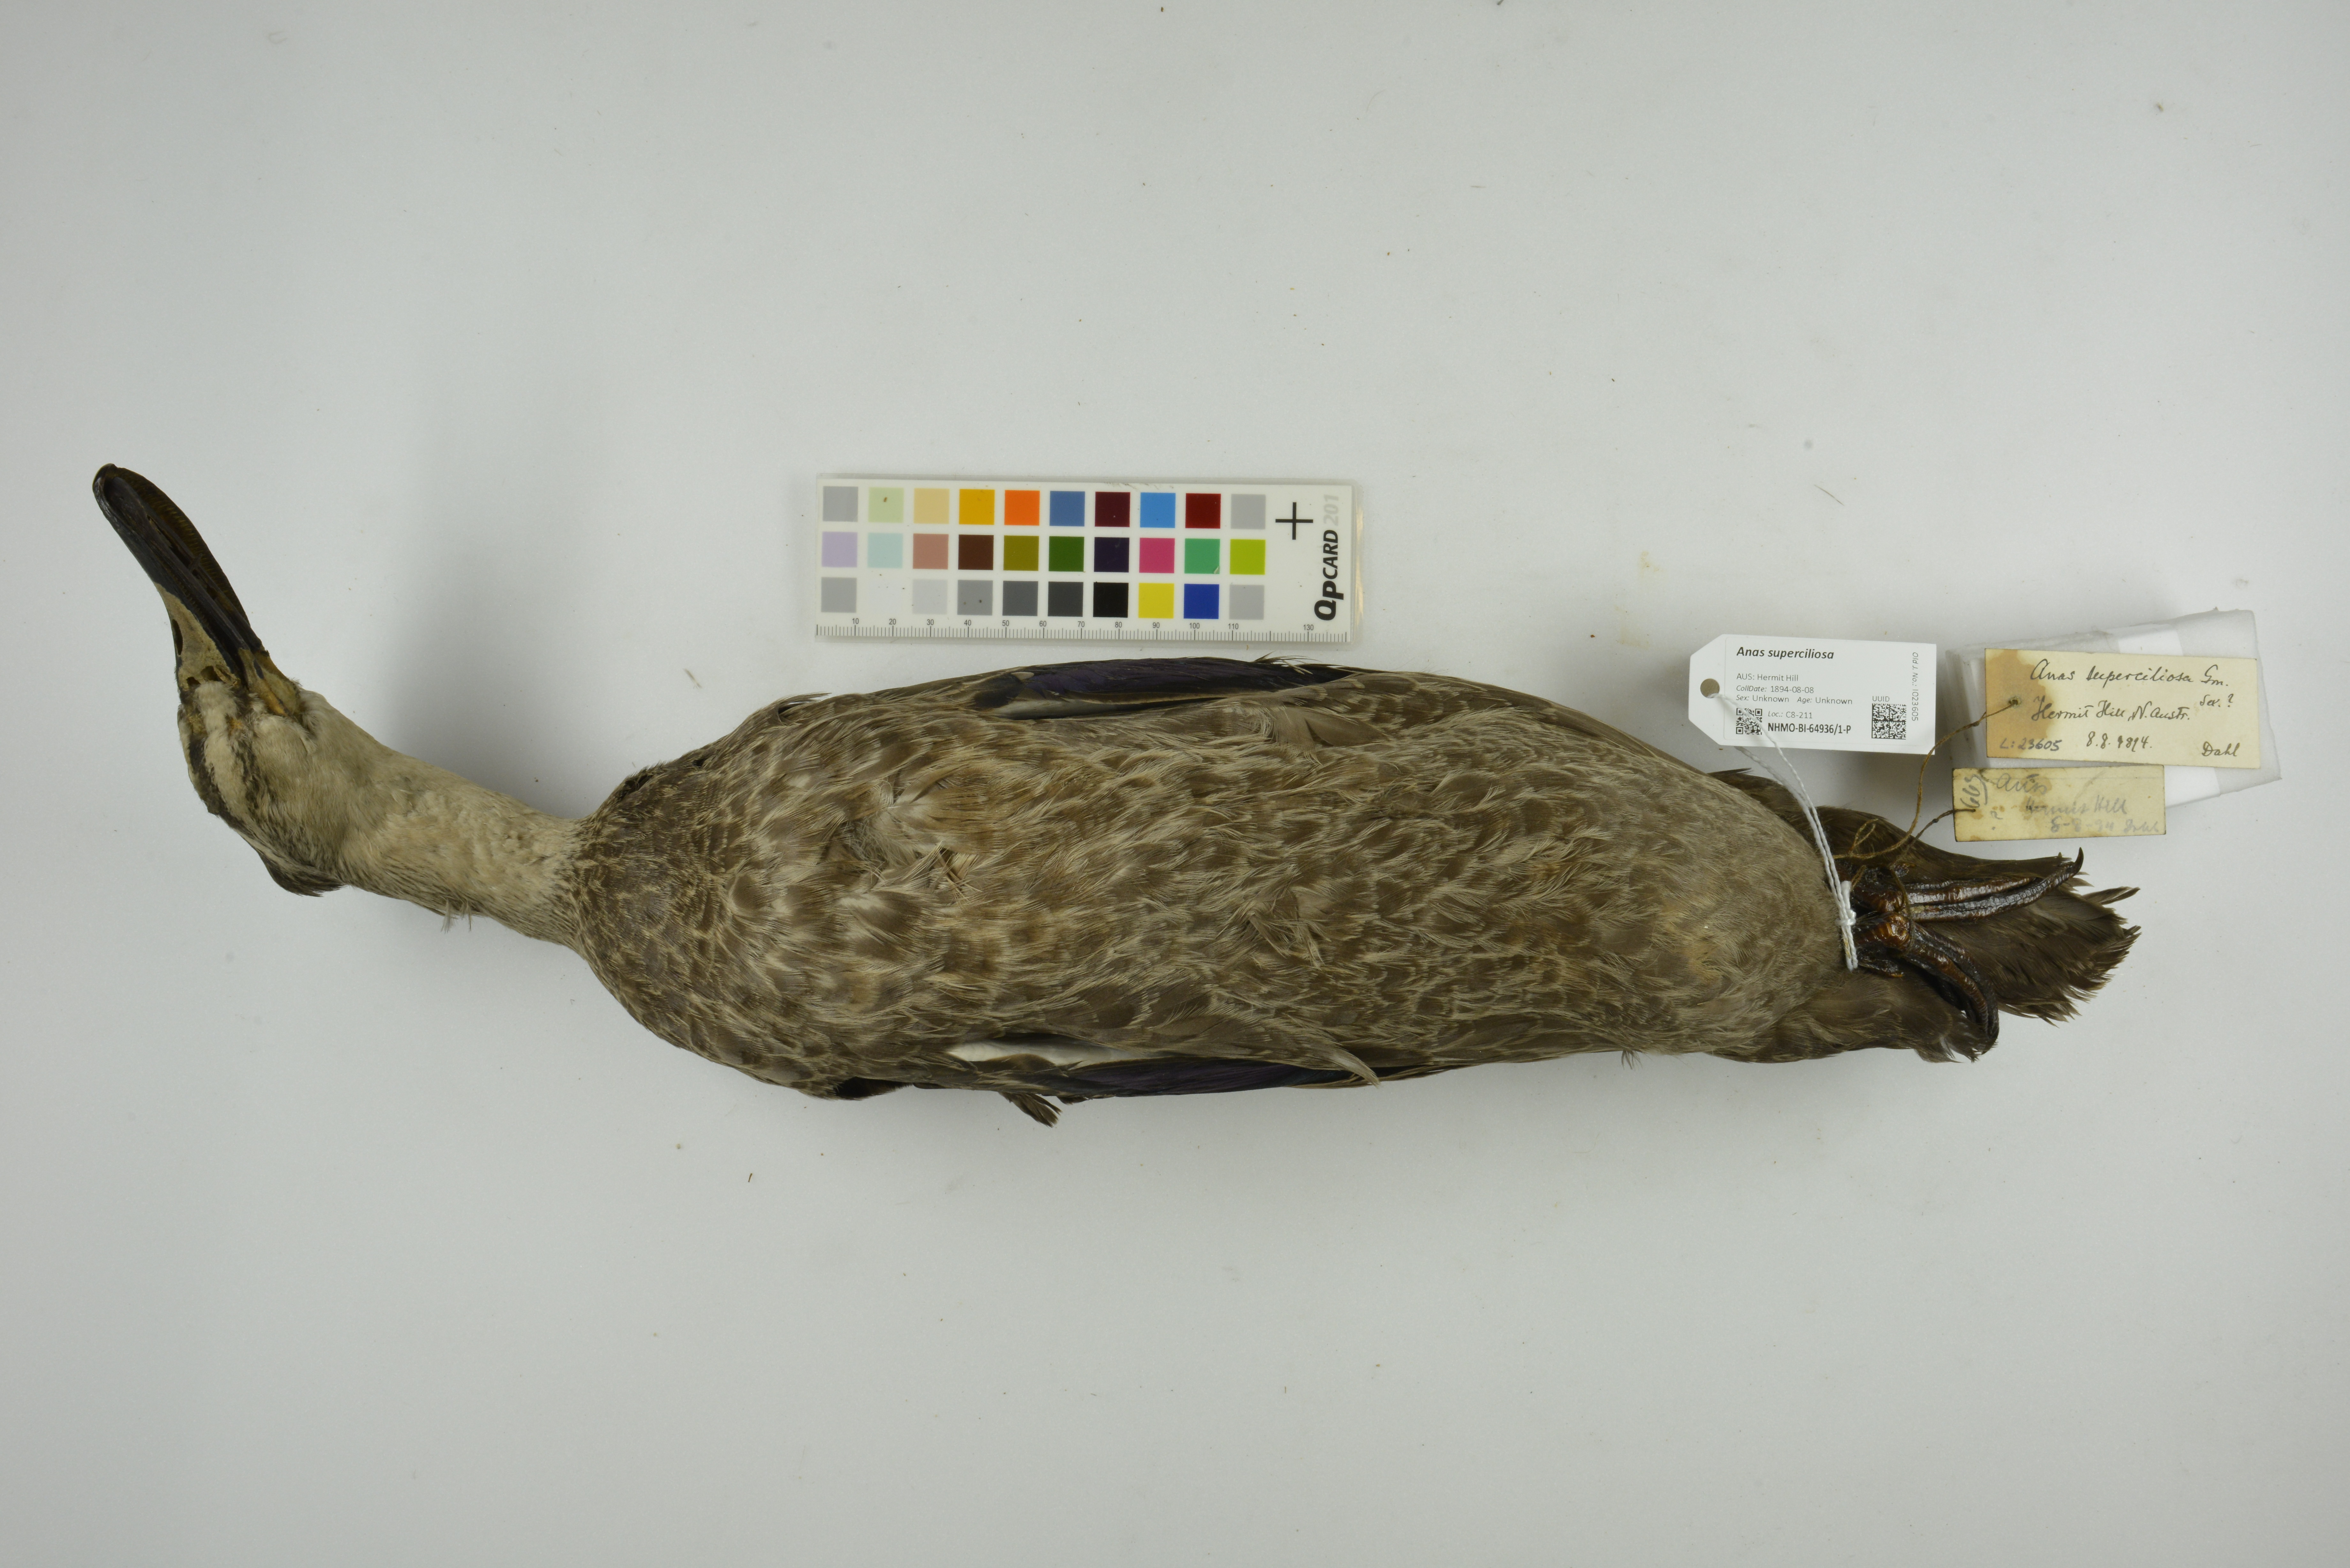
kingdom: Animalia
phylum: Chordata
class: Aves
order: Anseriformes
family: Anatidae
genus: Anas
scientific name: Anas superciliosa
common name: Pacific black duck
